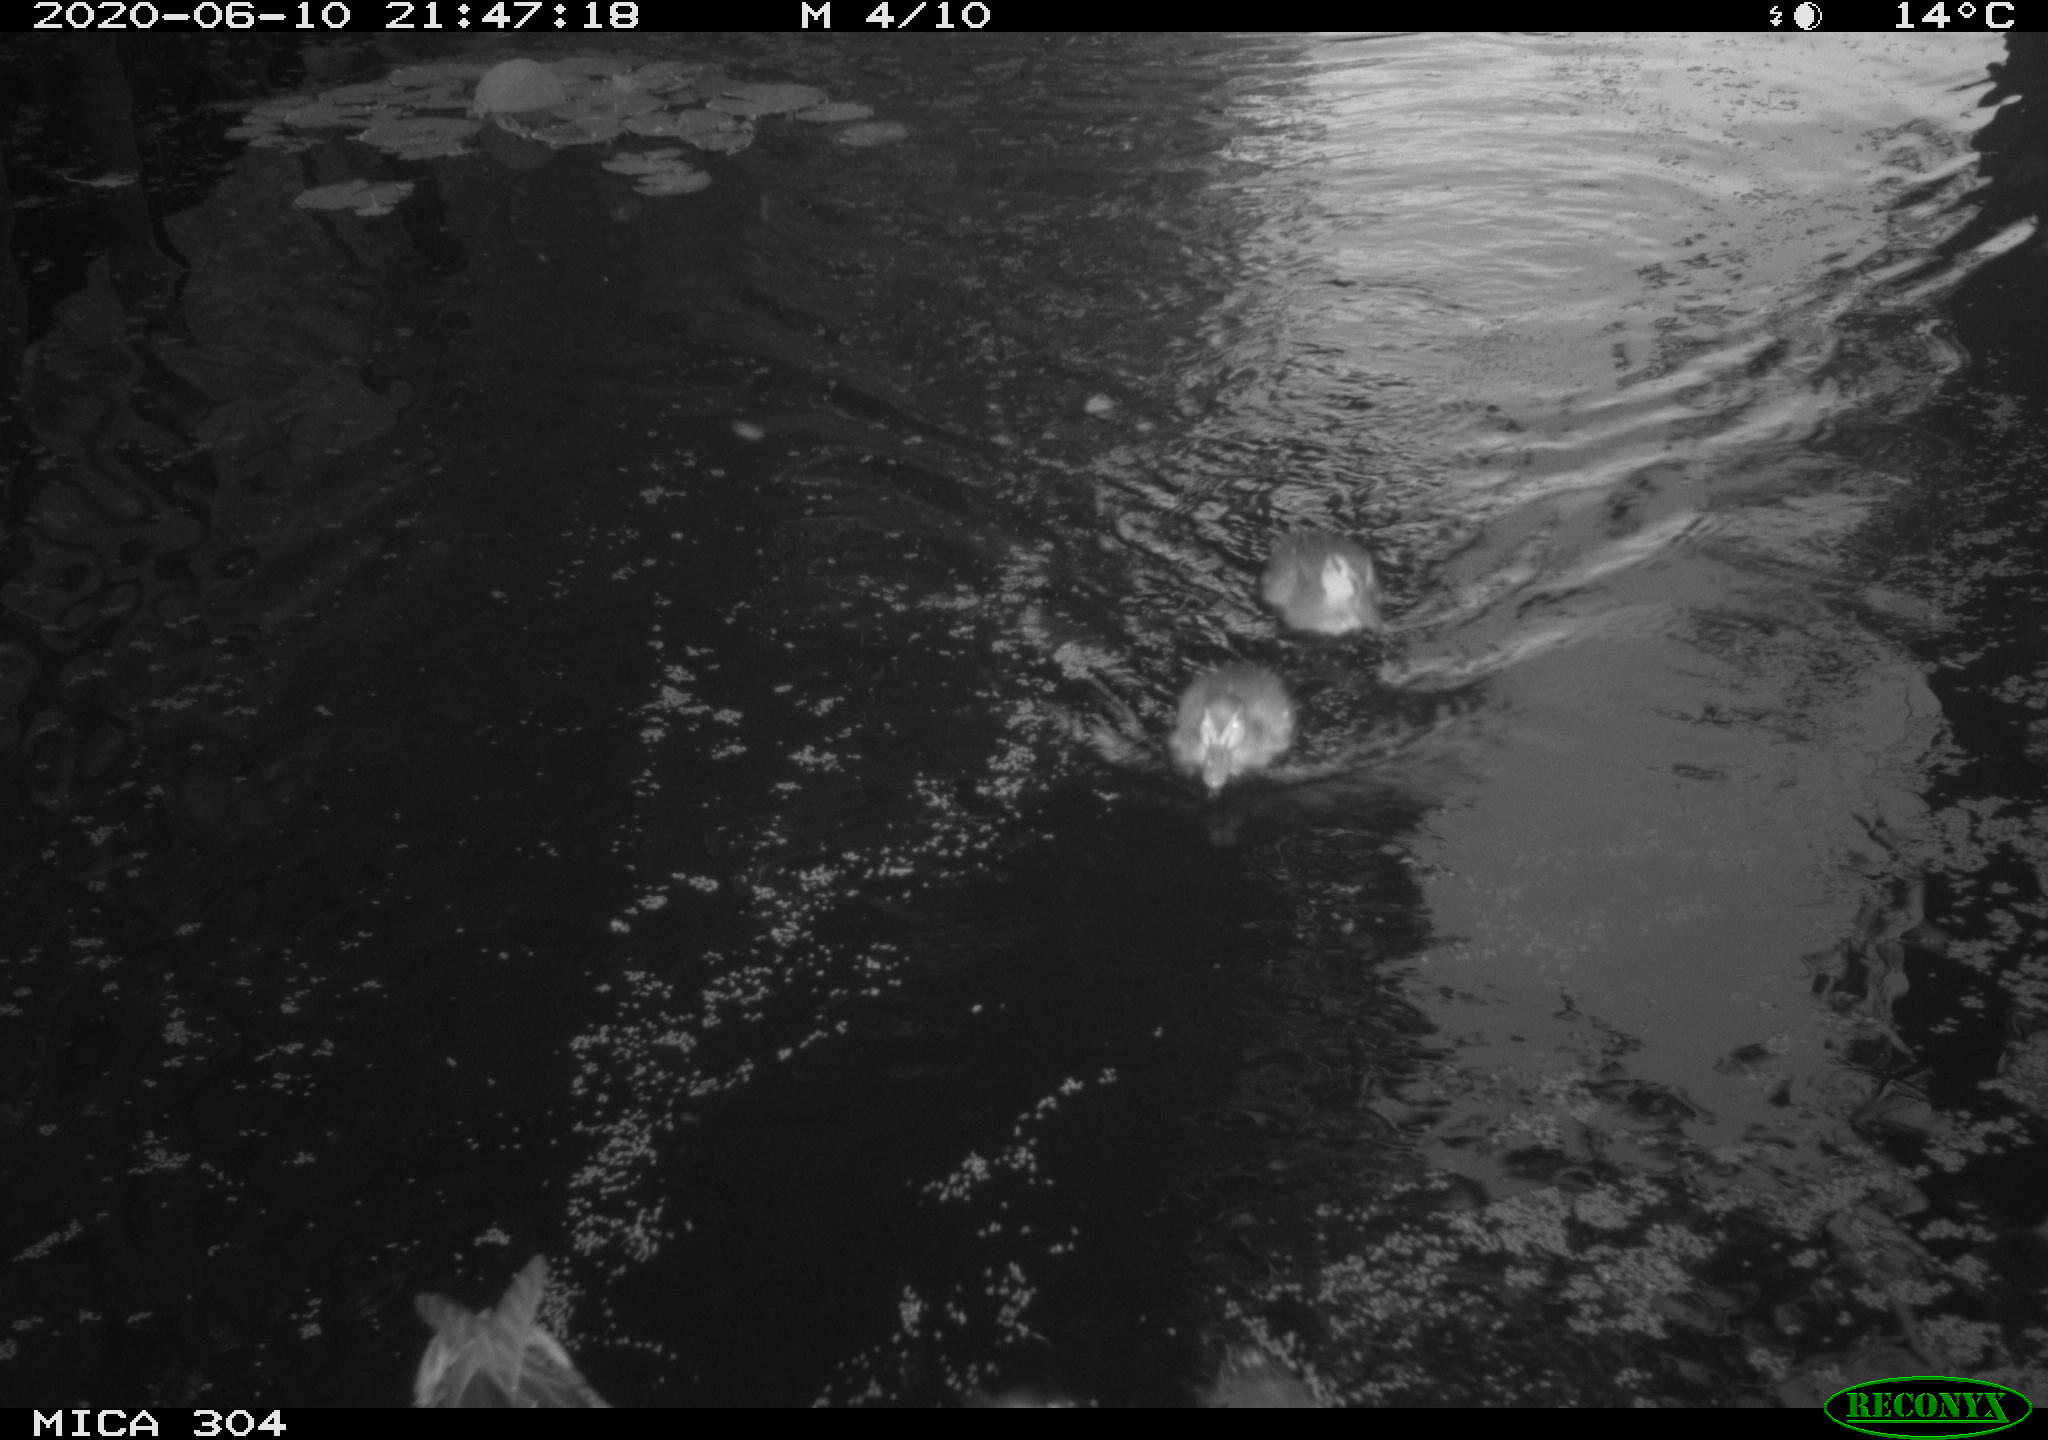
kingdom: Animalia
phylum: Chordata
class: Aves
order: Anseriformes
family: Anatidae
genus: Anas
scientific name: Anas platyrhynchos
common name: Mallard
